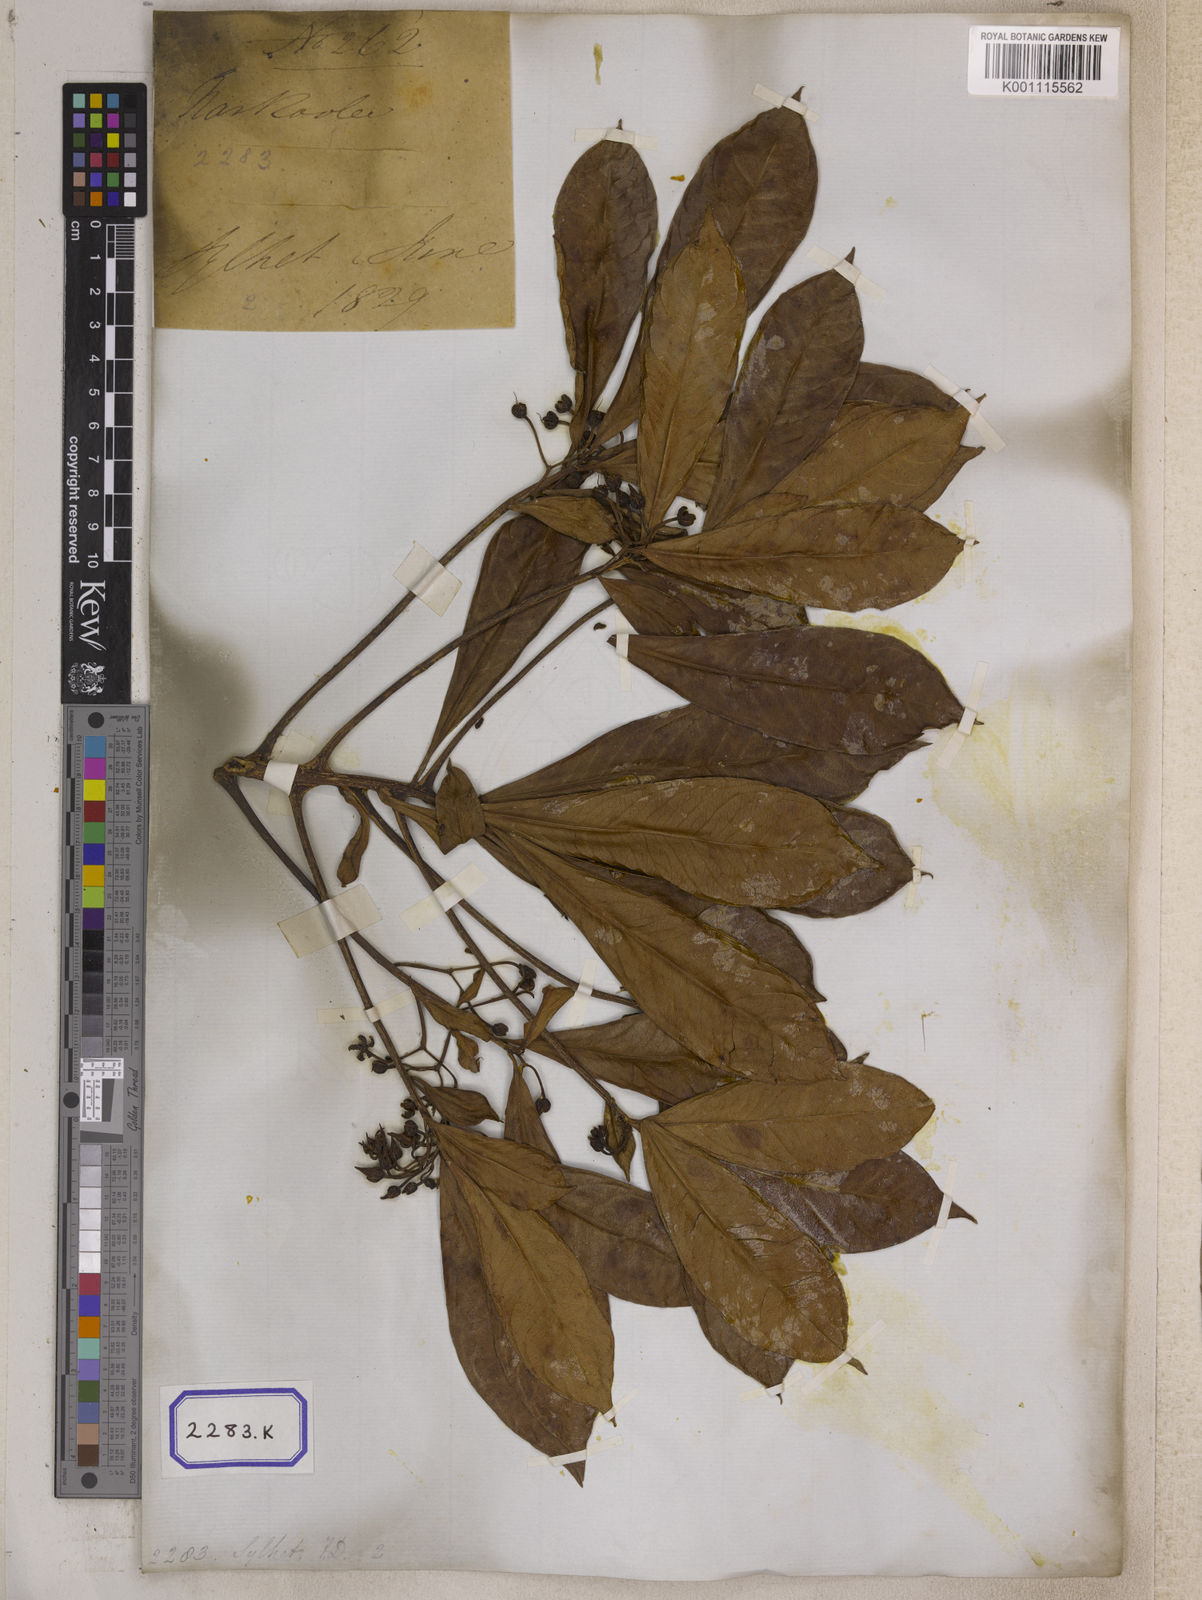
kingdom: Plantae
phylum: Tracheophyta
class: Magnoliopsida
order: Ericales
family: Primulaceae
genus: Ardisia
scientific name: Ardisia humilis
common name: Low shoebutton
